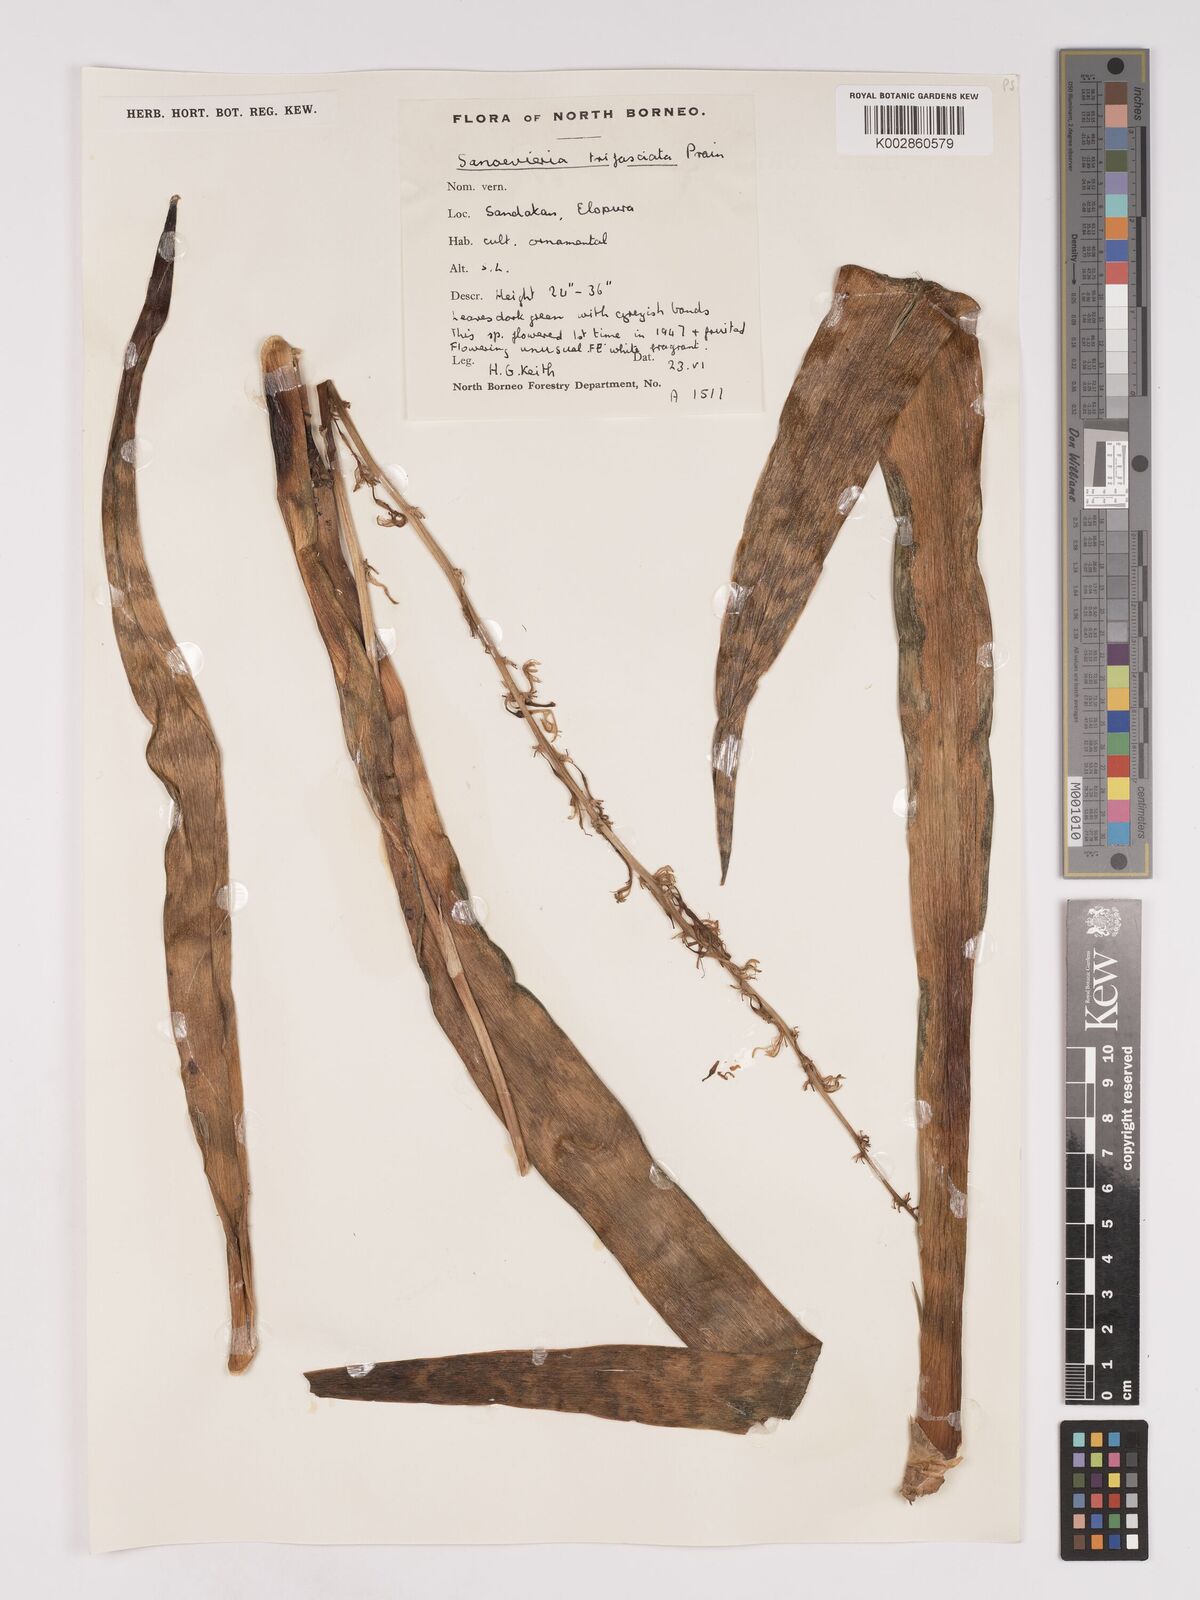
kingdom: Plantae
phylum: Tracheophyta
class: Liliopsida
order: Asparagales
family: Asparagaceae
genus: Dracaena
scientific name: Dracaena terniflora
